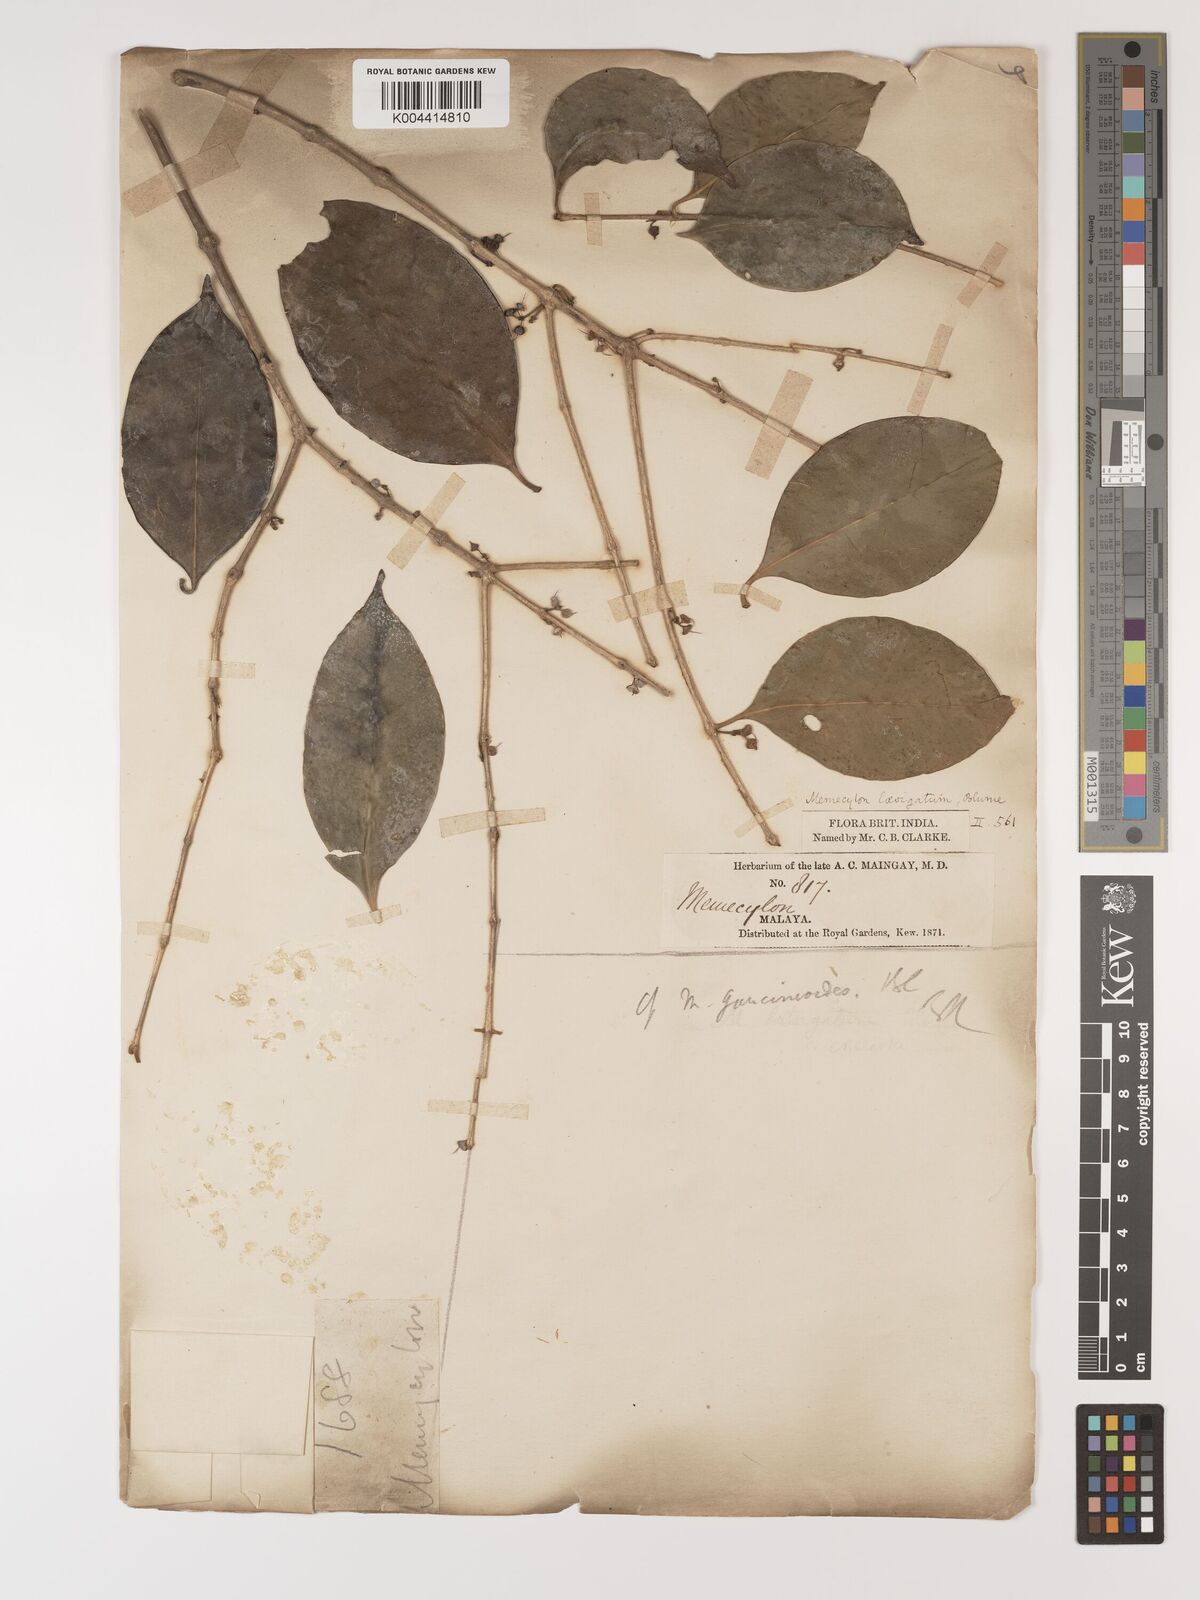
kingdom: Plantae
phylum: Tracheophyta
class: Magnoliopsida
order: Myrtales
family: Melastomataceae
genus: Memecylon
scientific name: Memecylon cantleyi
